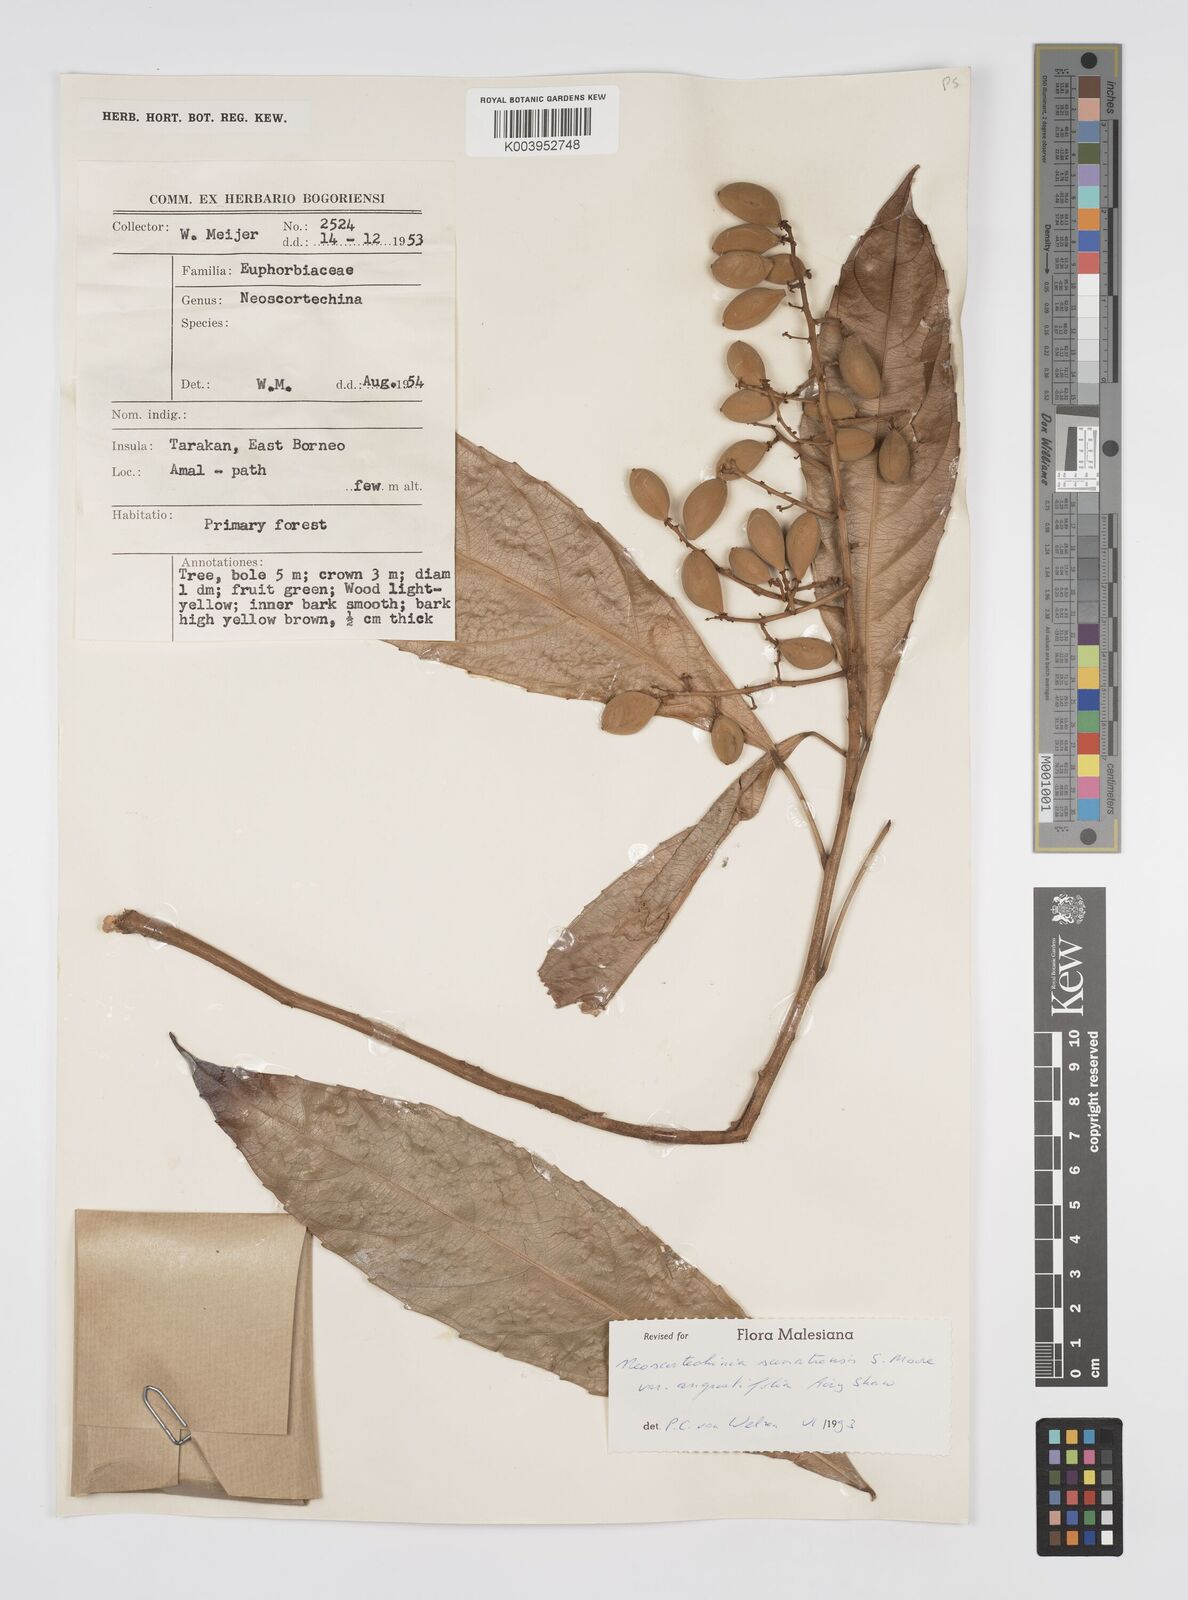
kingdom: Plantae
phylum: Tracheophyta
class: Magnoliopsida
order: Malpighiales
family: Euphorbiaceae
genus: Neoscortechinia
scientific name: Neoscortechinia angustifolia
